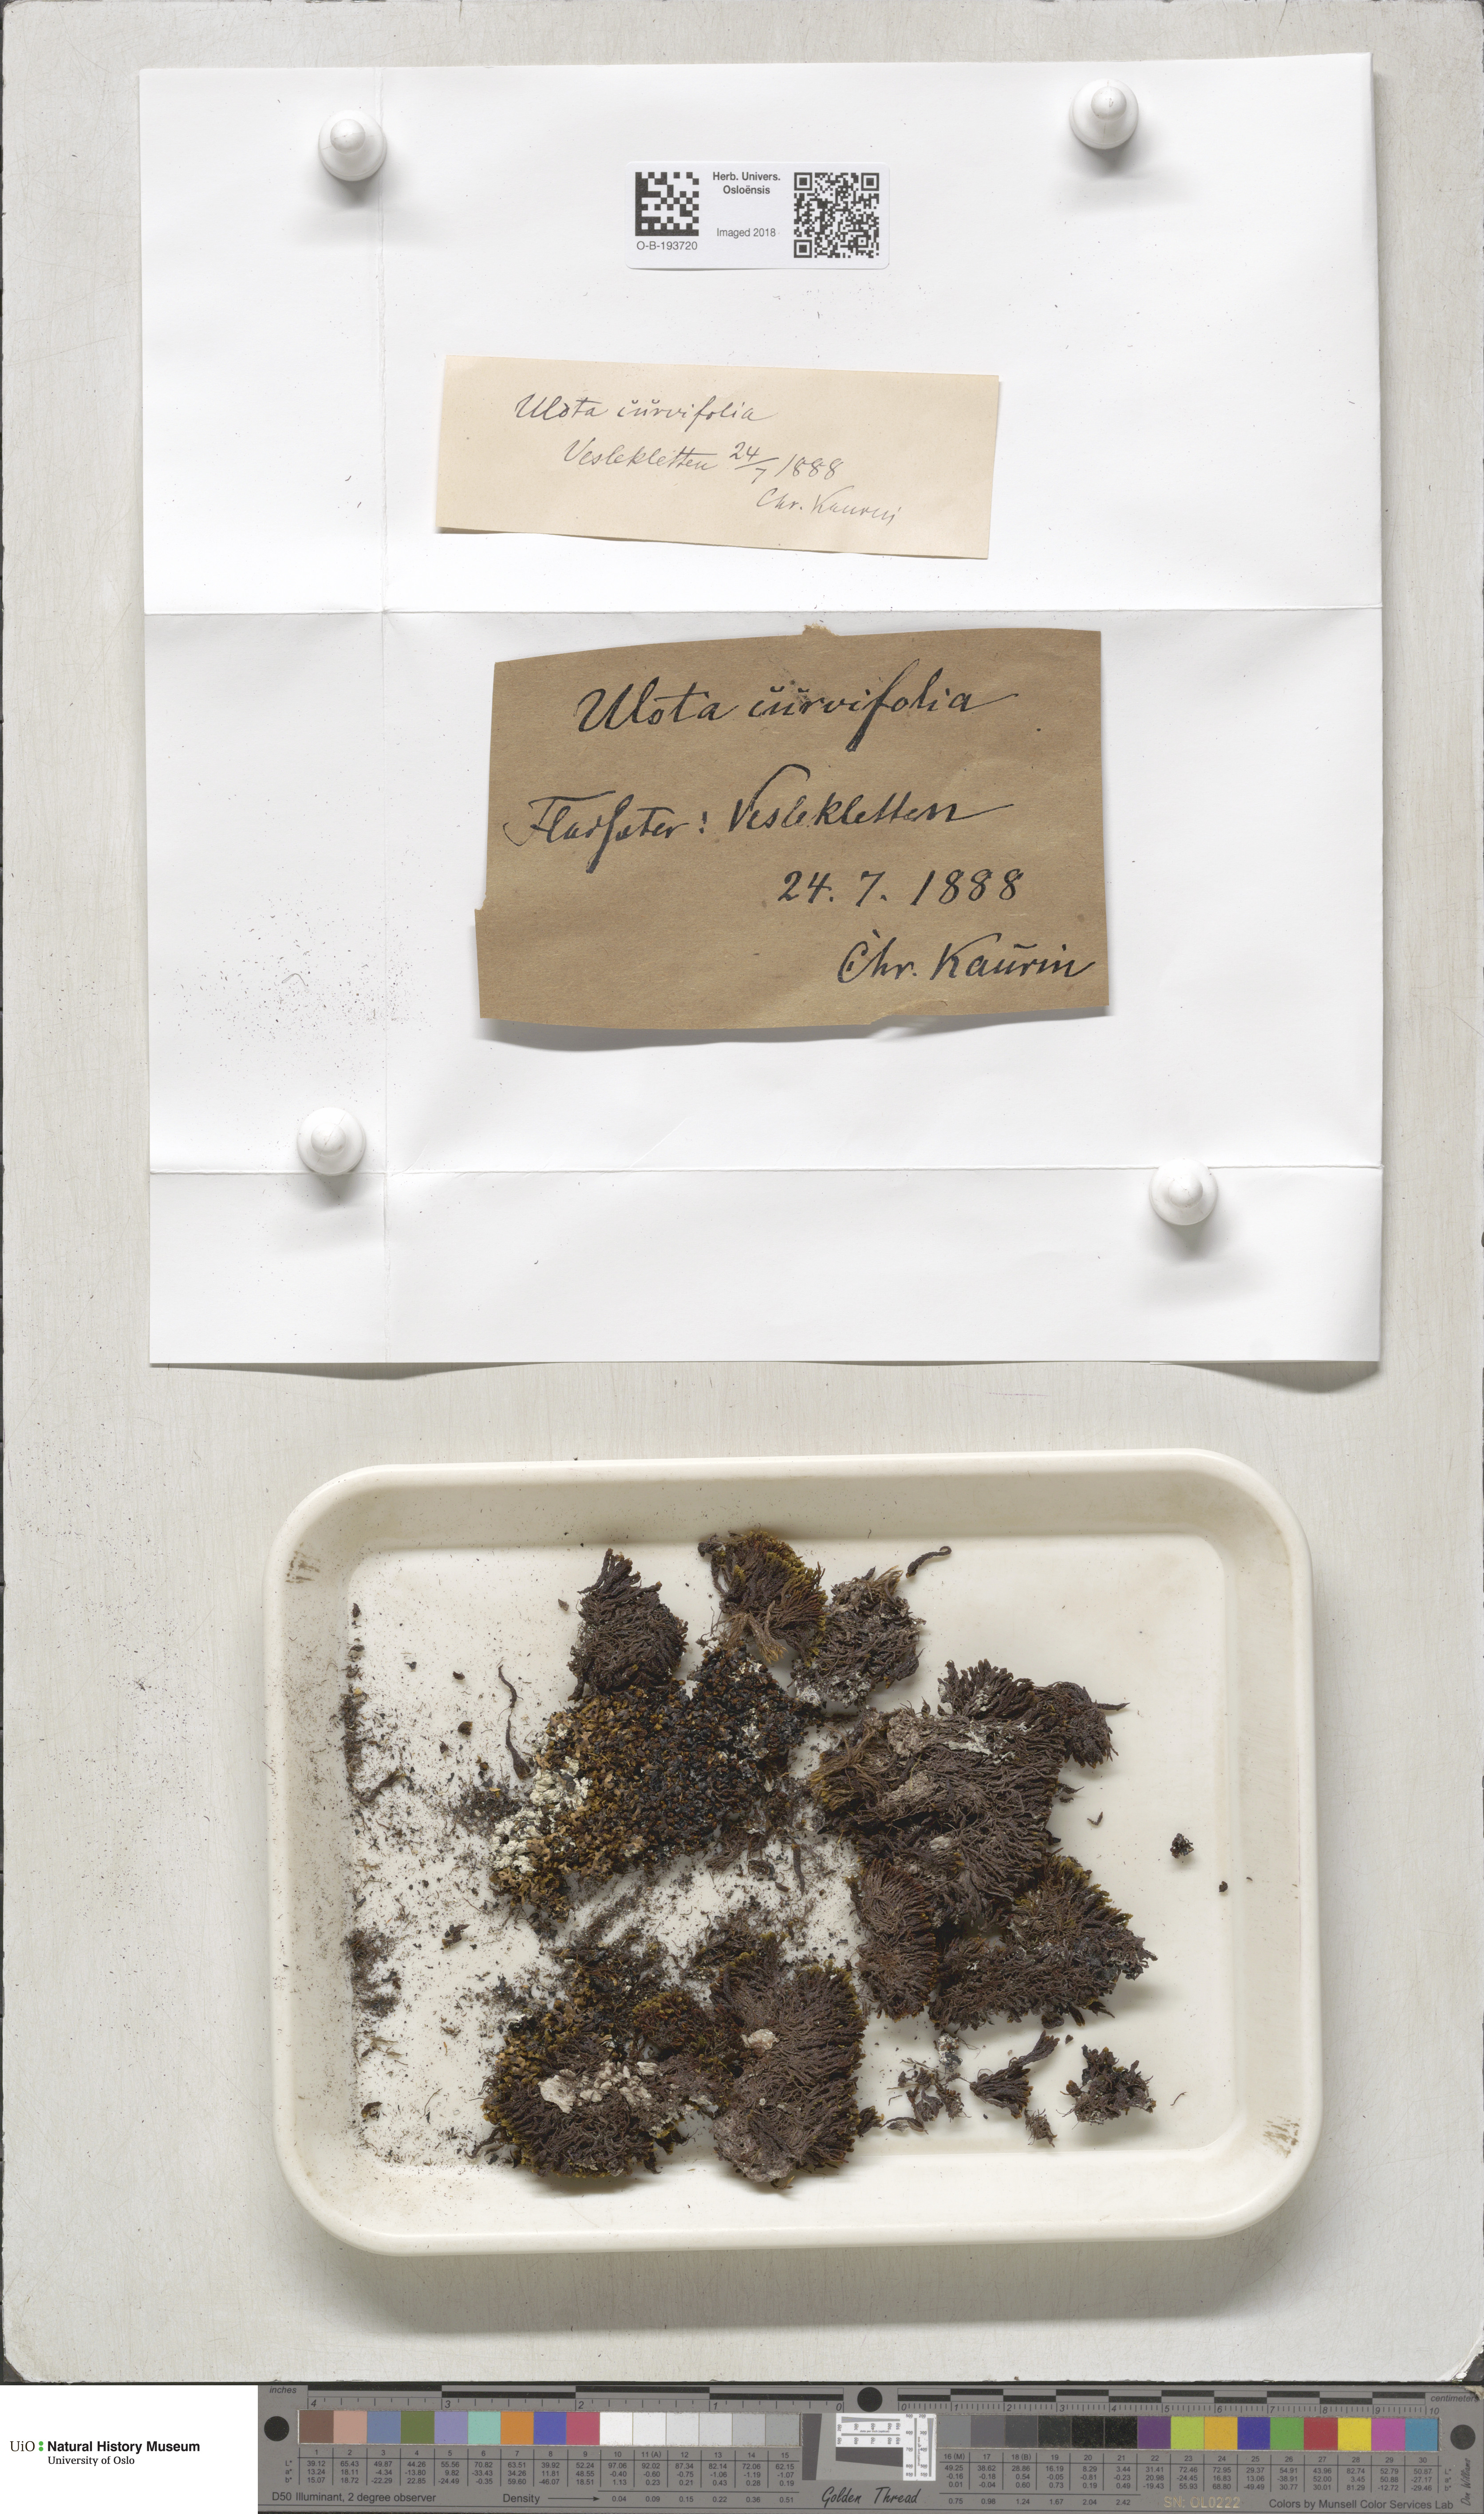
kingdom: Plantae
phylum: Bryophyta
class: Bryopsida
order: Orthotrichales
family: Orthotrichaceae
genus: Ulota
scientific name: Ulota curvifolia
